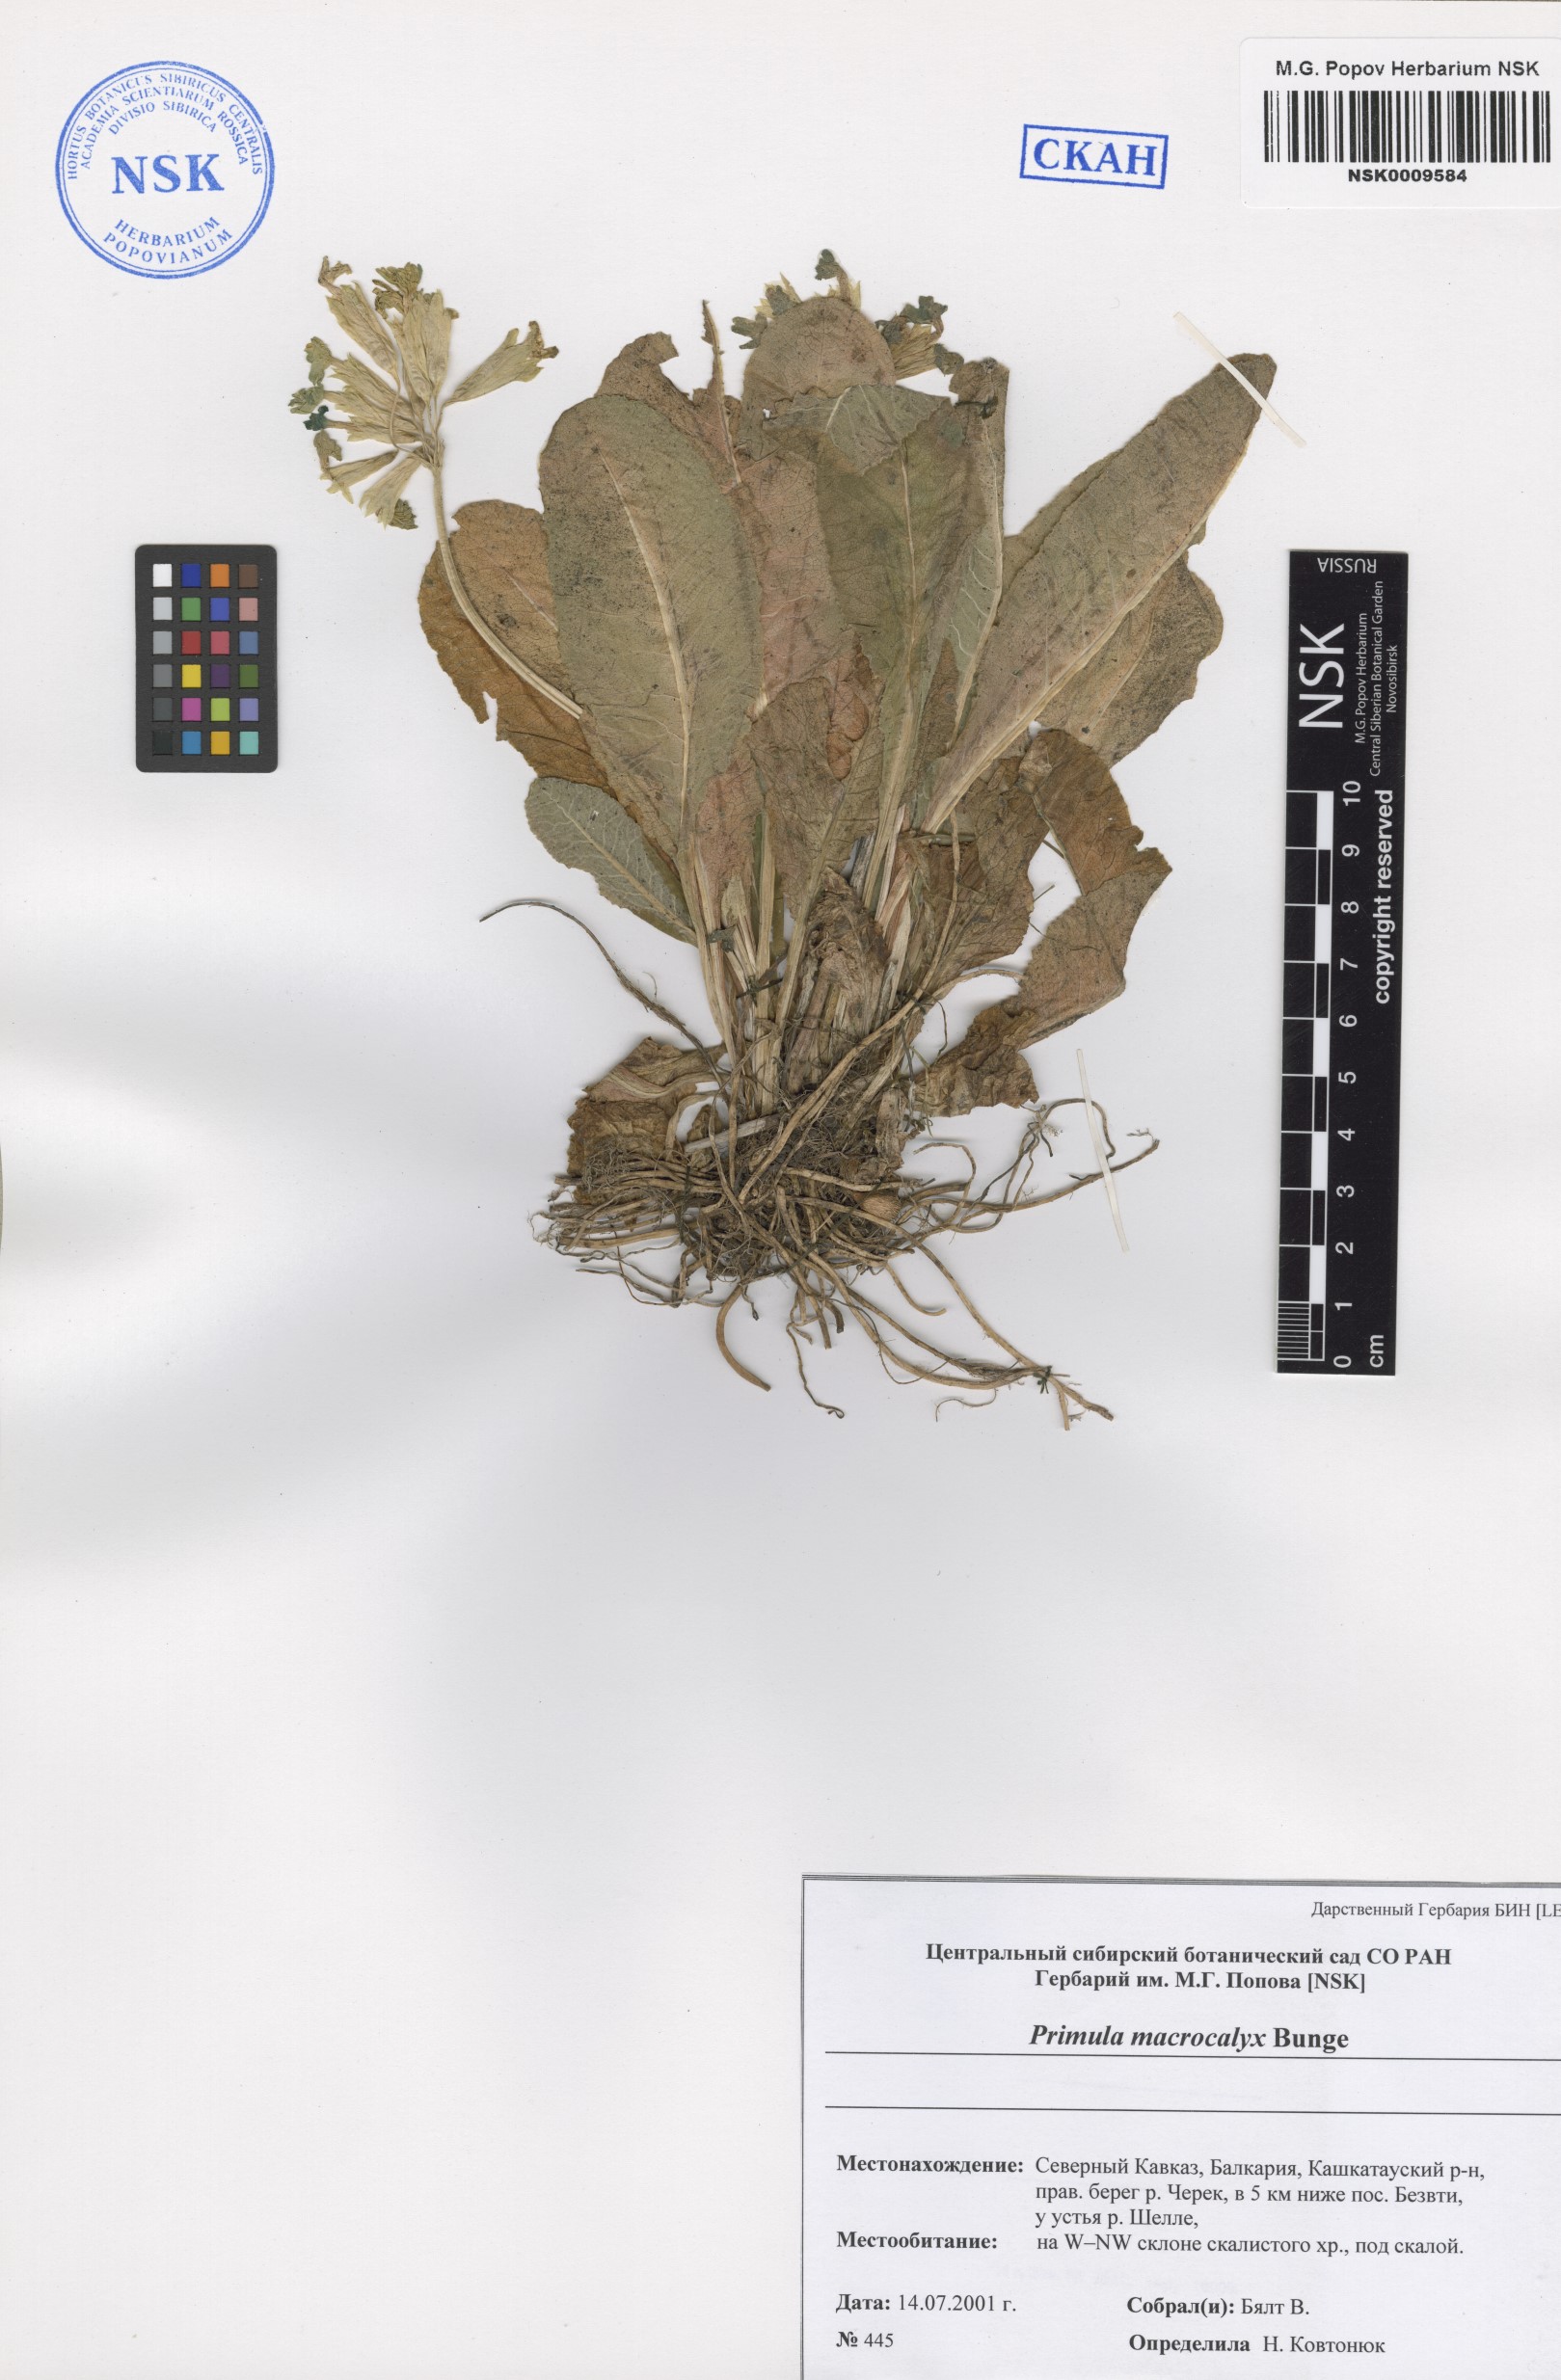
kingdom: Plantae
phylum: Tracheophyta
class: Magnoliopsida
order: Ericales
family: Primulaceae
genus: Primula
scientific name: Primula veris
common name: Cowslip
